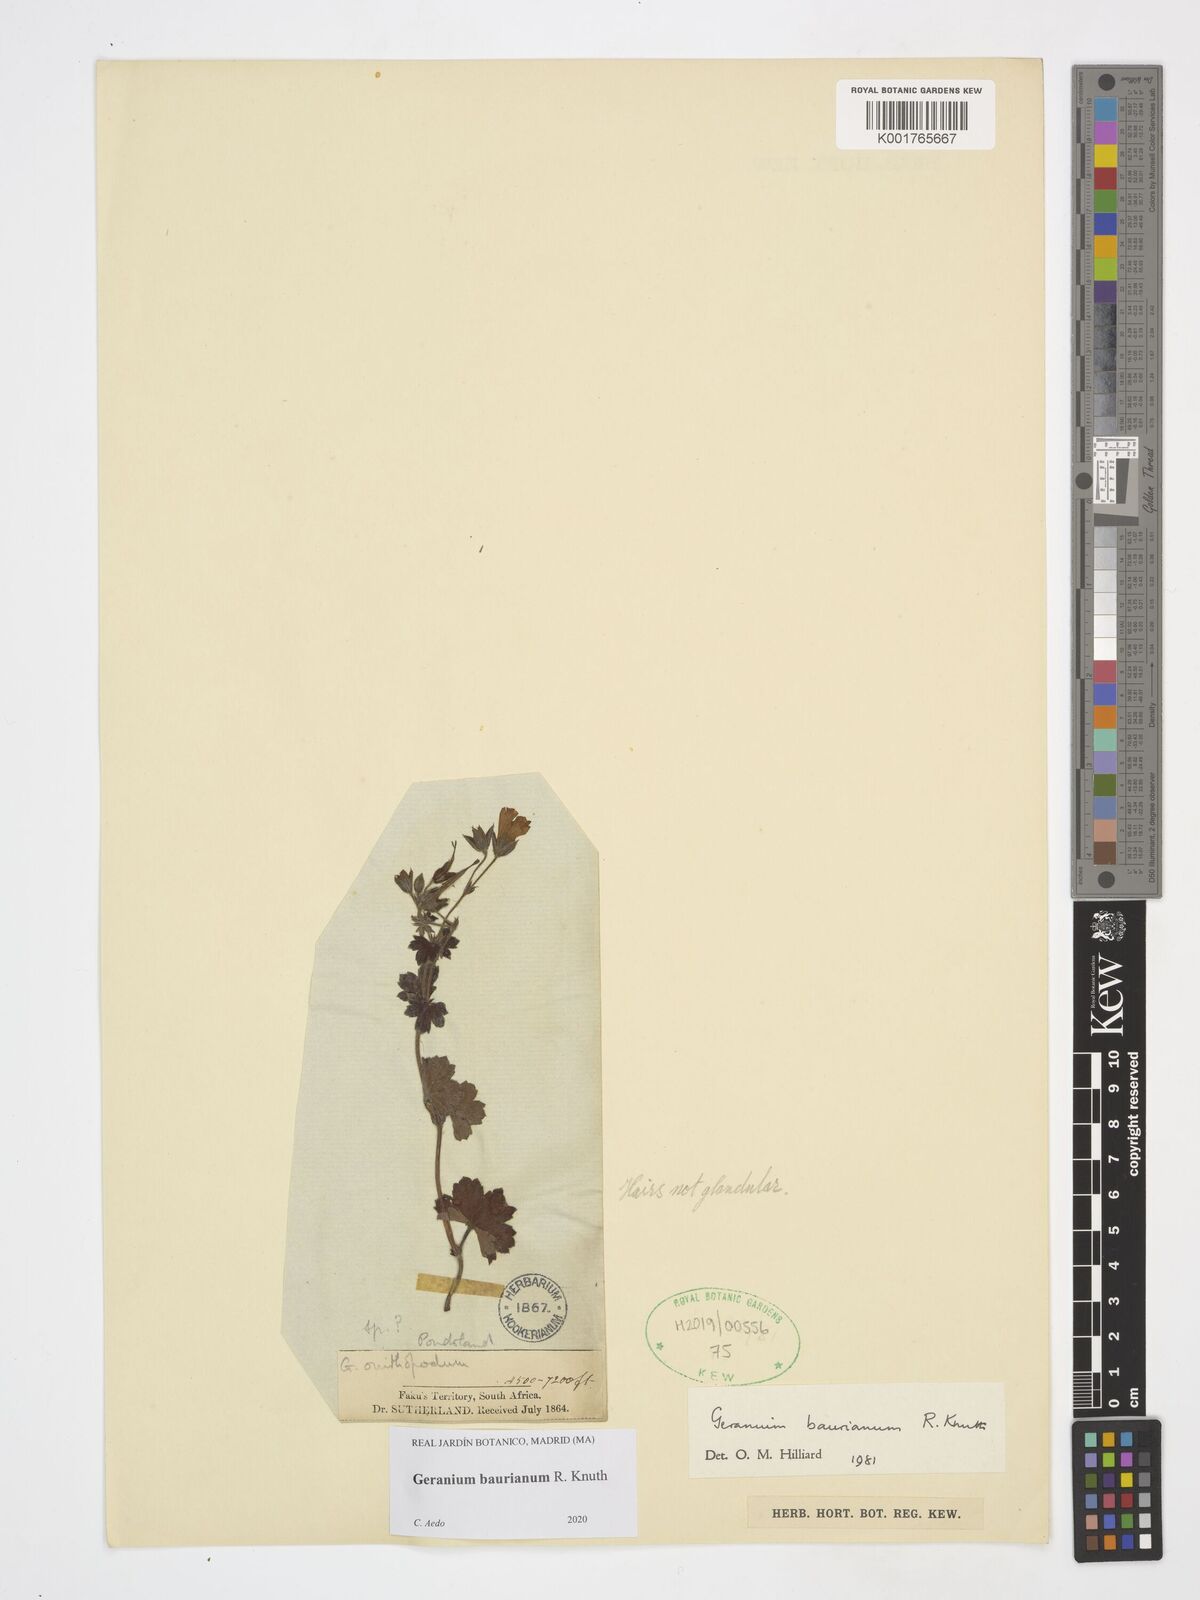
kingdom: Plantae
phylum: Tracheophyta
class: Magnoliopsida
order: Geraniales
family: Geraniaceae
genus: Geranium
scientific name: Geranium baurianum
